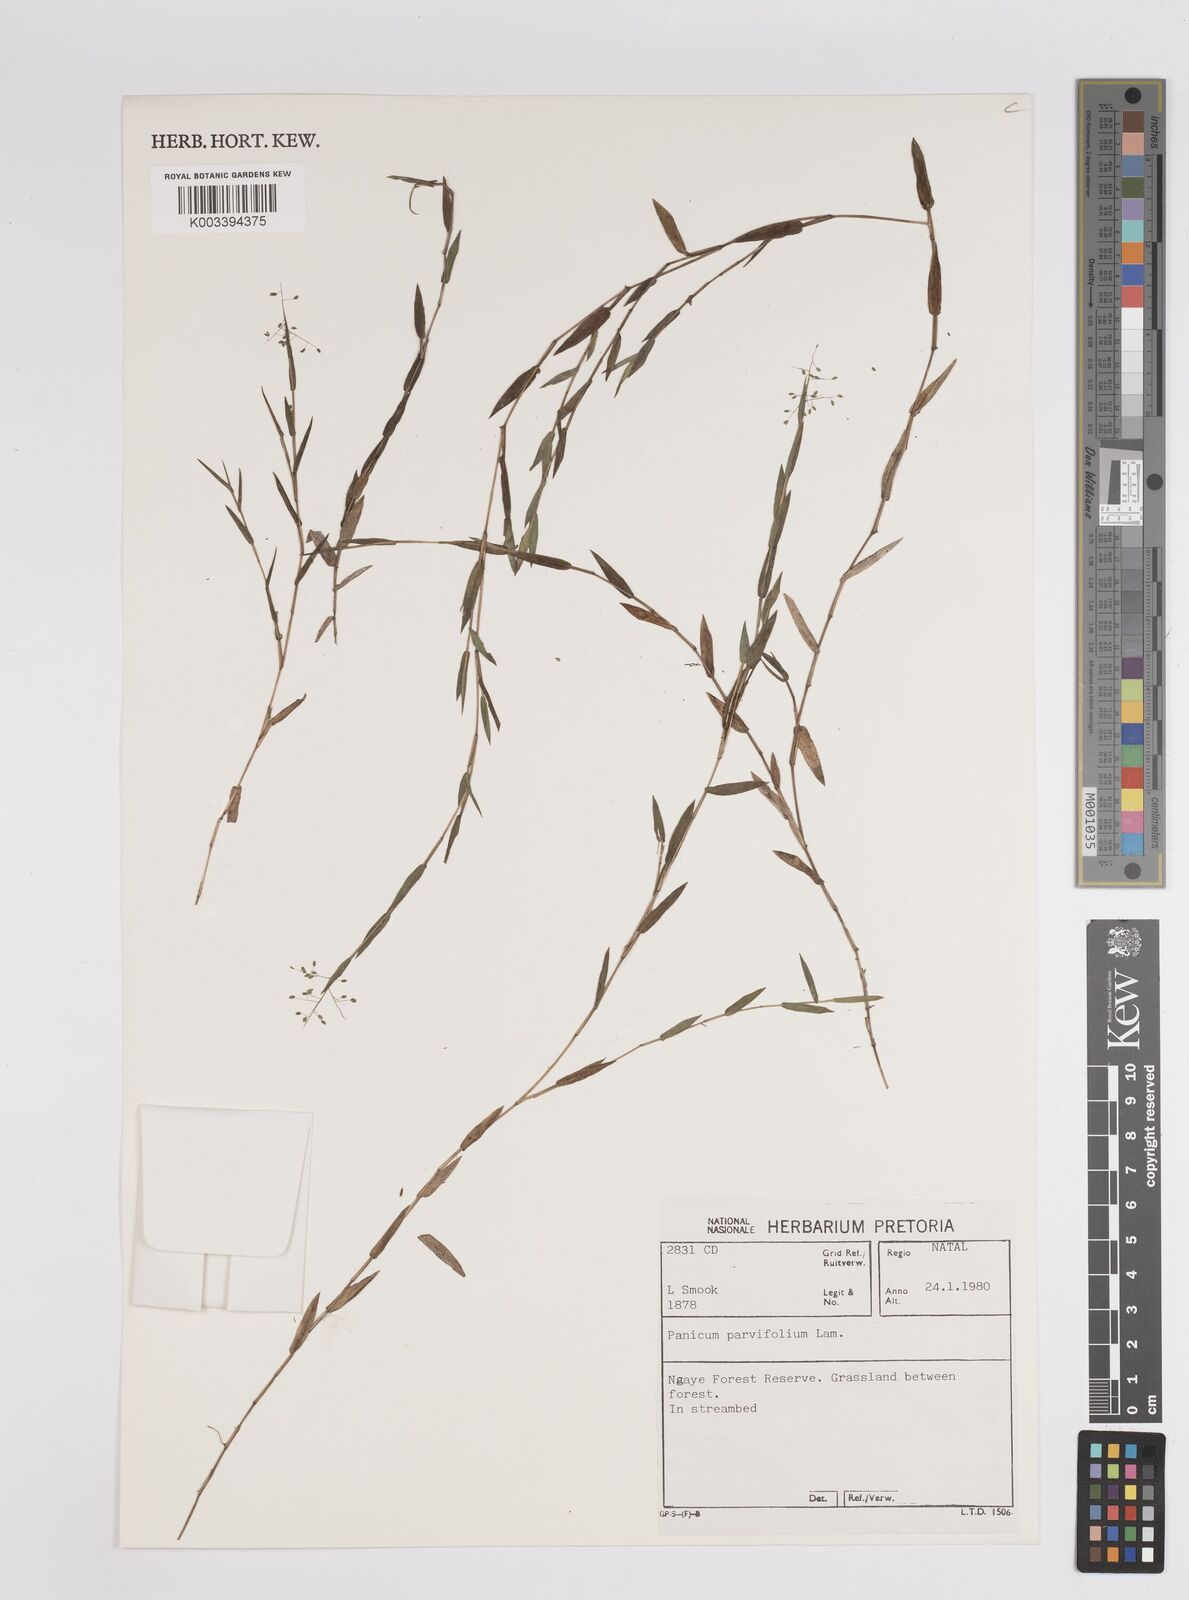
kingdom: Plantae
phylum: Tracheophyta
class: Liliopsida
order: Poales
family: Poaceae
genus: Digitaria
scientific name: Digitaria parviflora
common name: Small-flower finger grass
